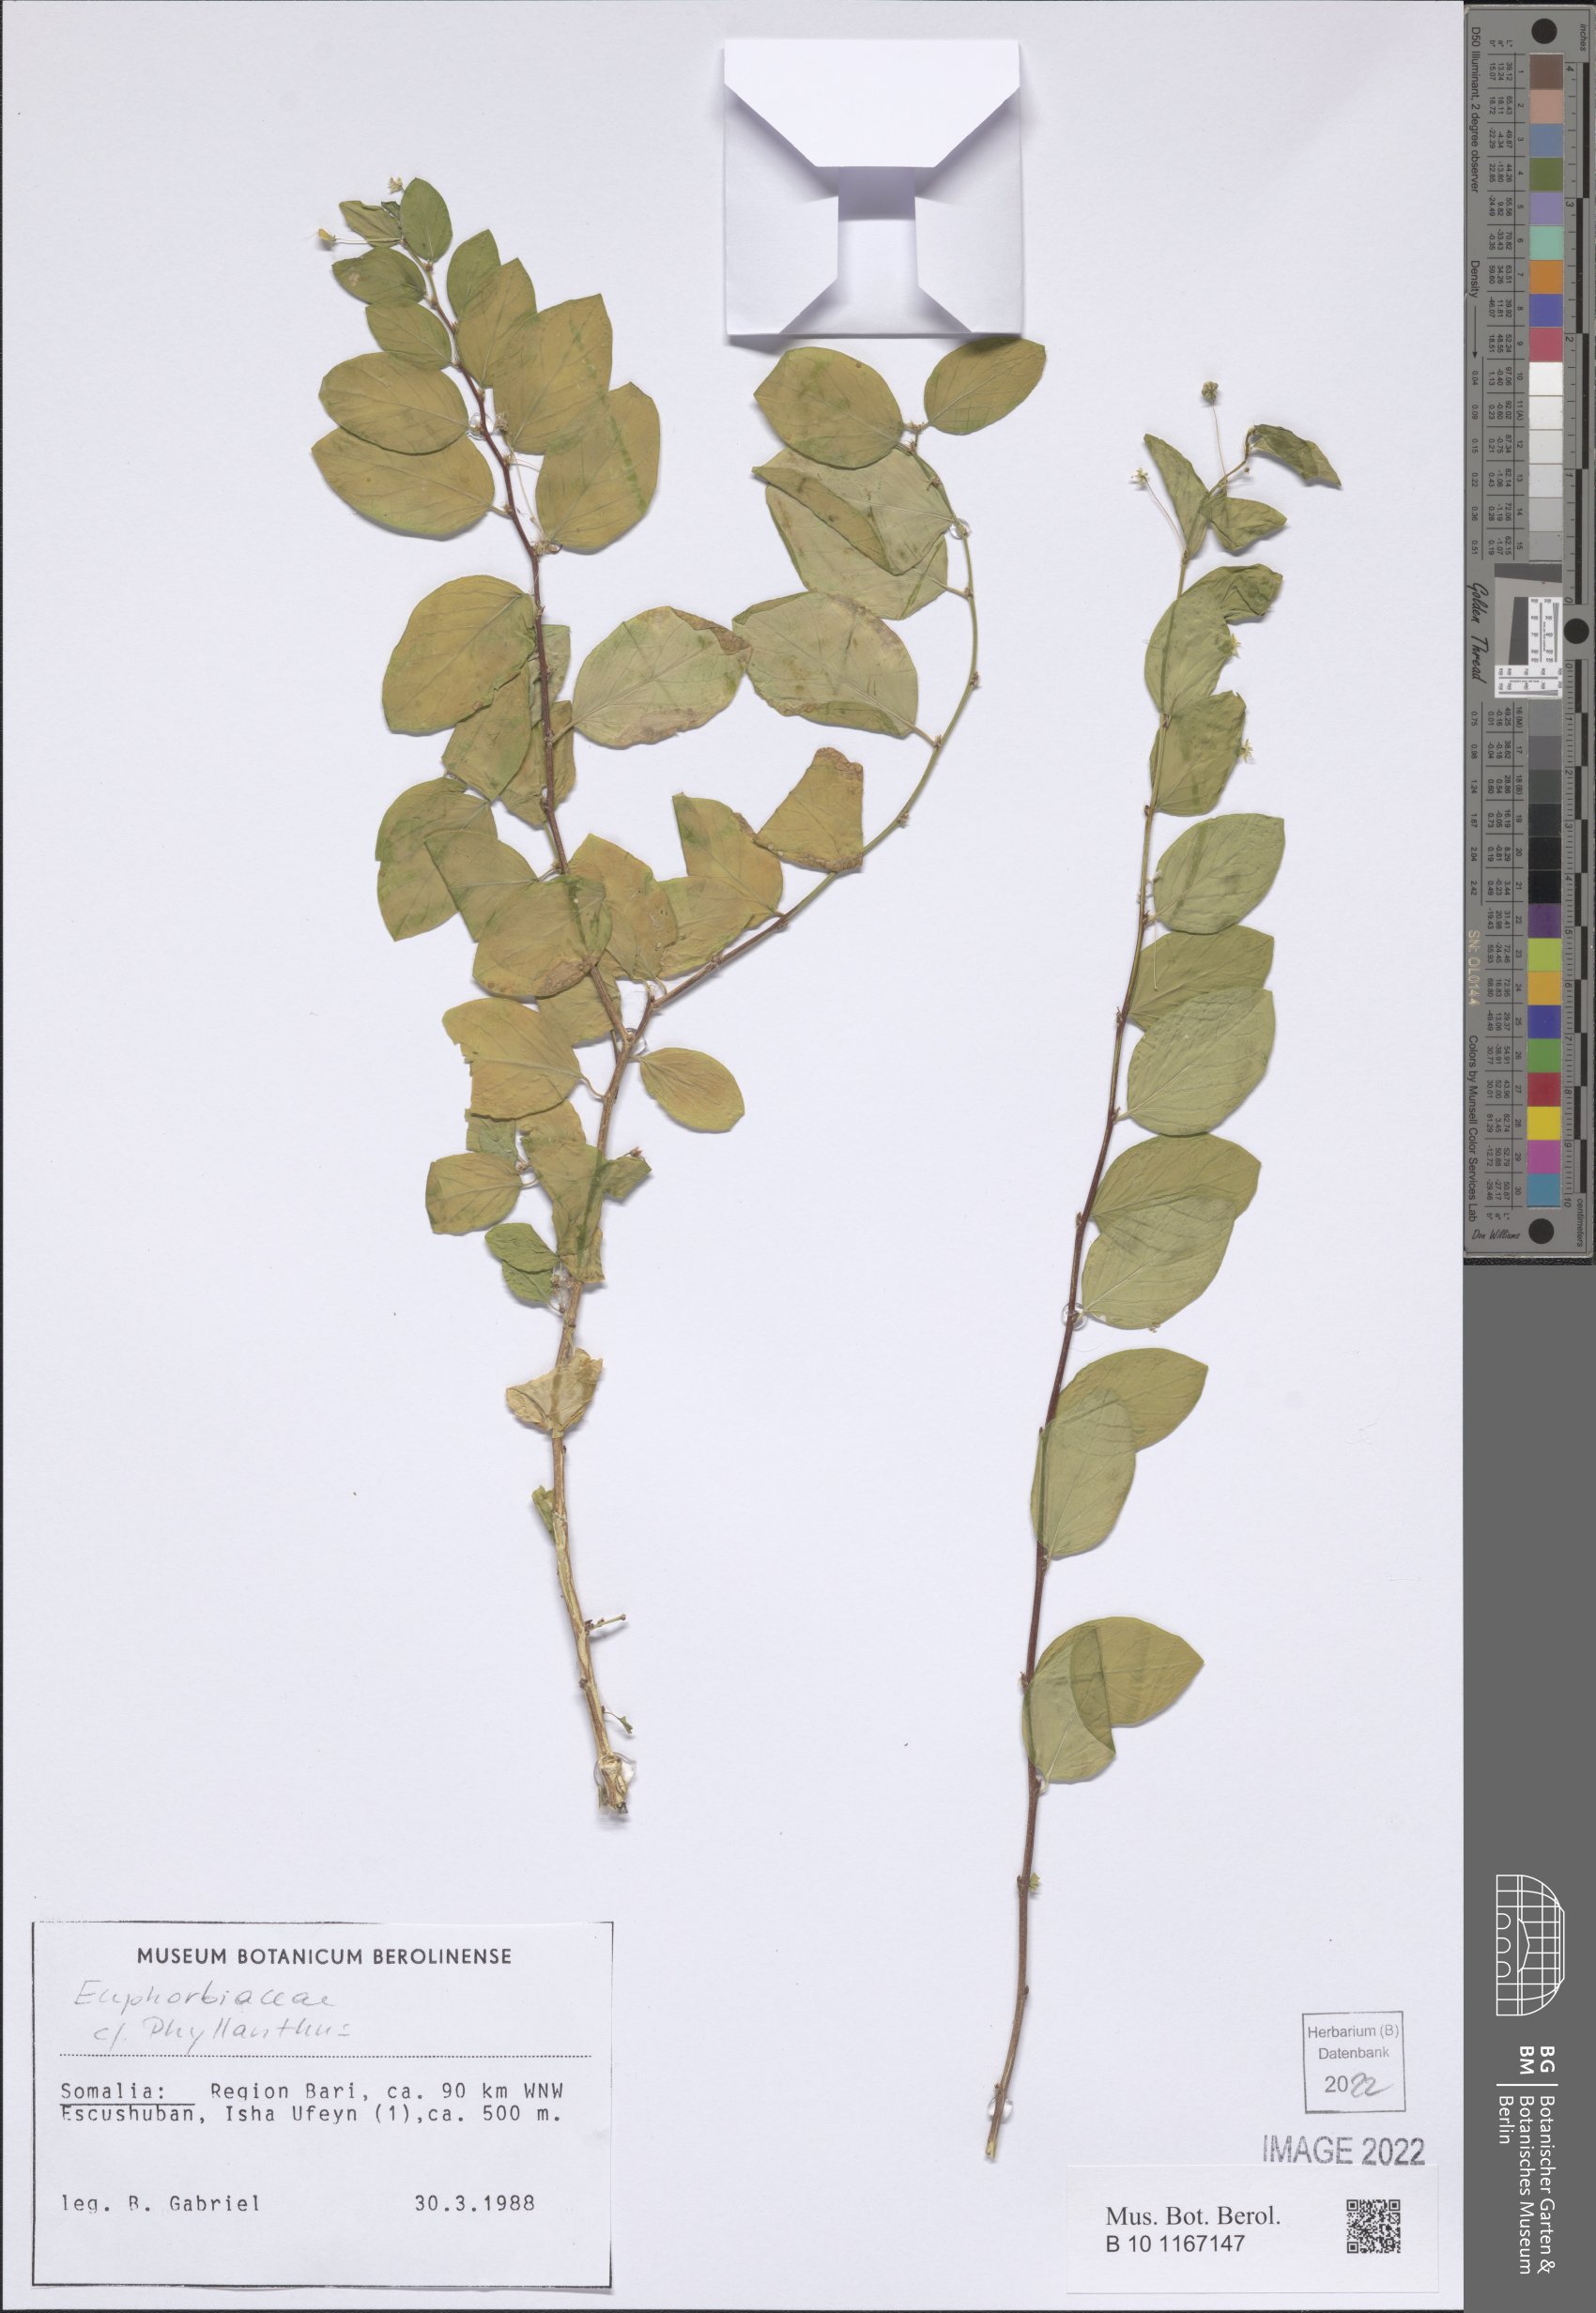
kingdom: Plantae
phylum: Tracheophyta
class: Magnoliopsida
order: Malpighiales
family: Phyllanthaceae
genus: Phyllanthus
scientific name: Phyllanthus
